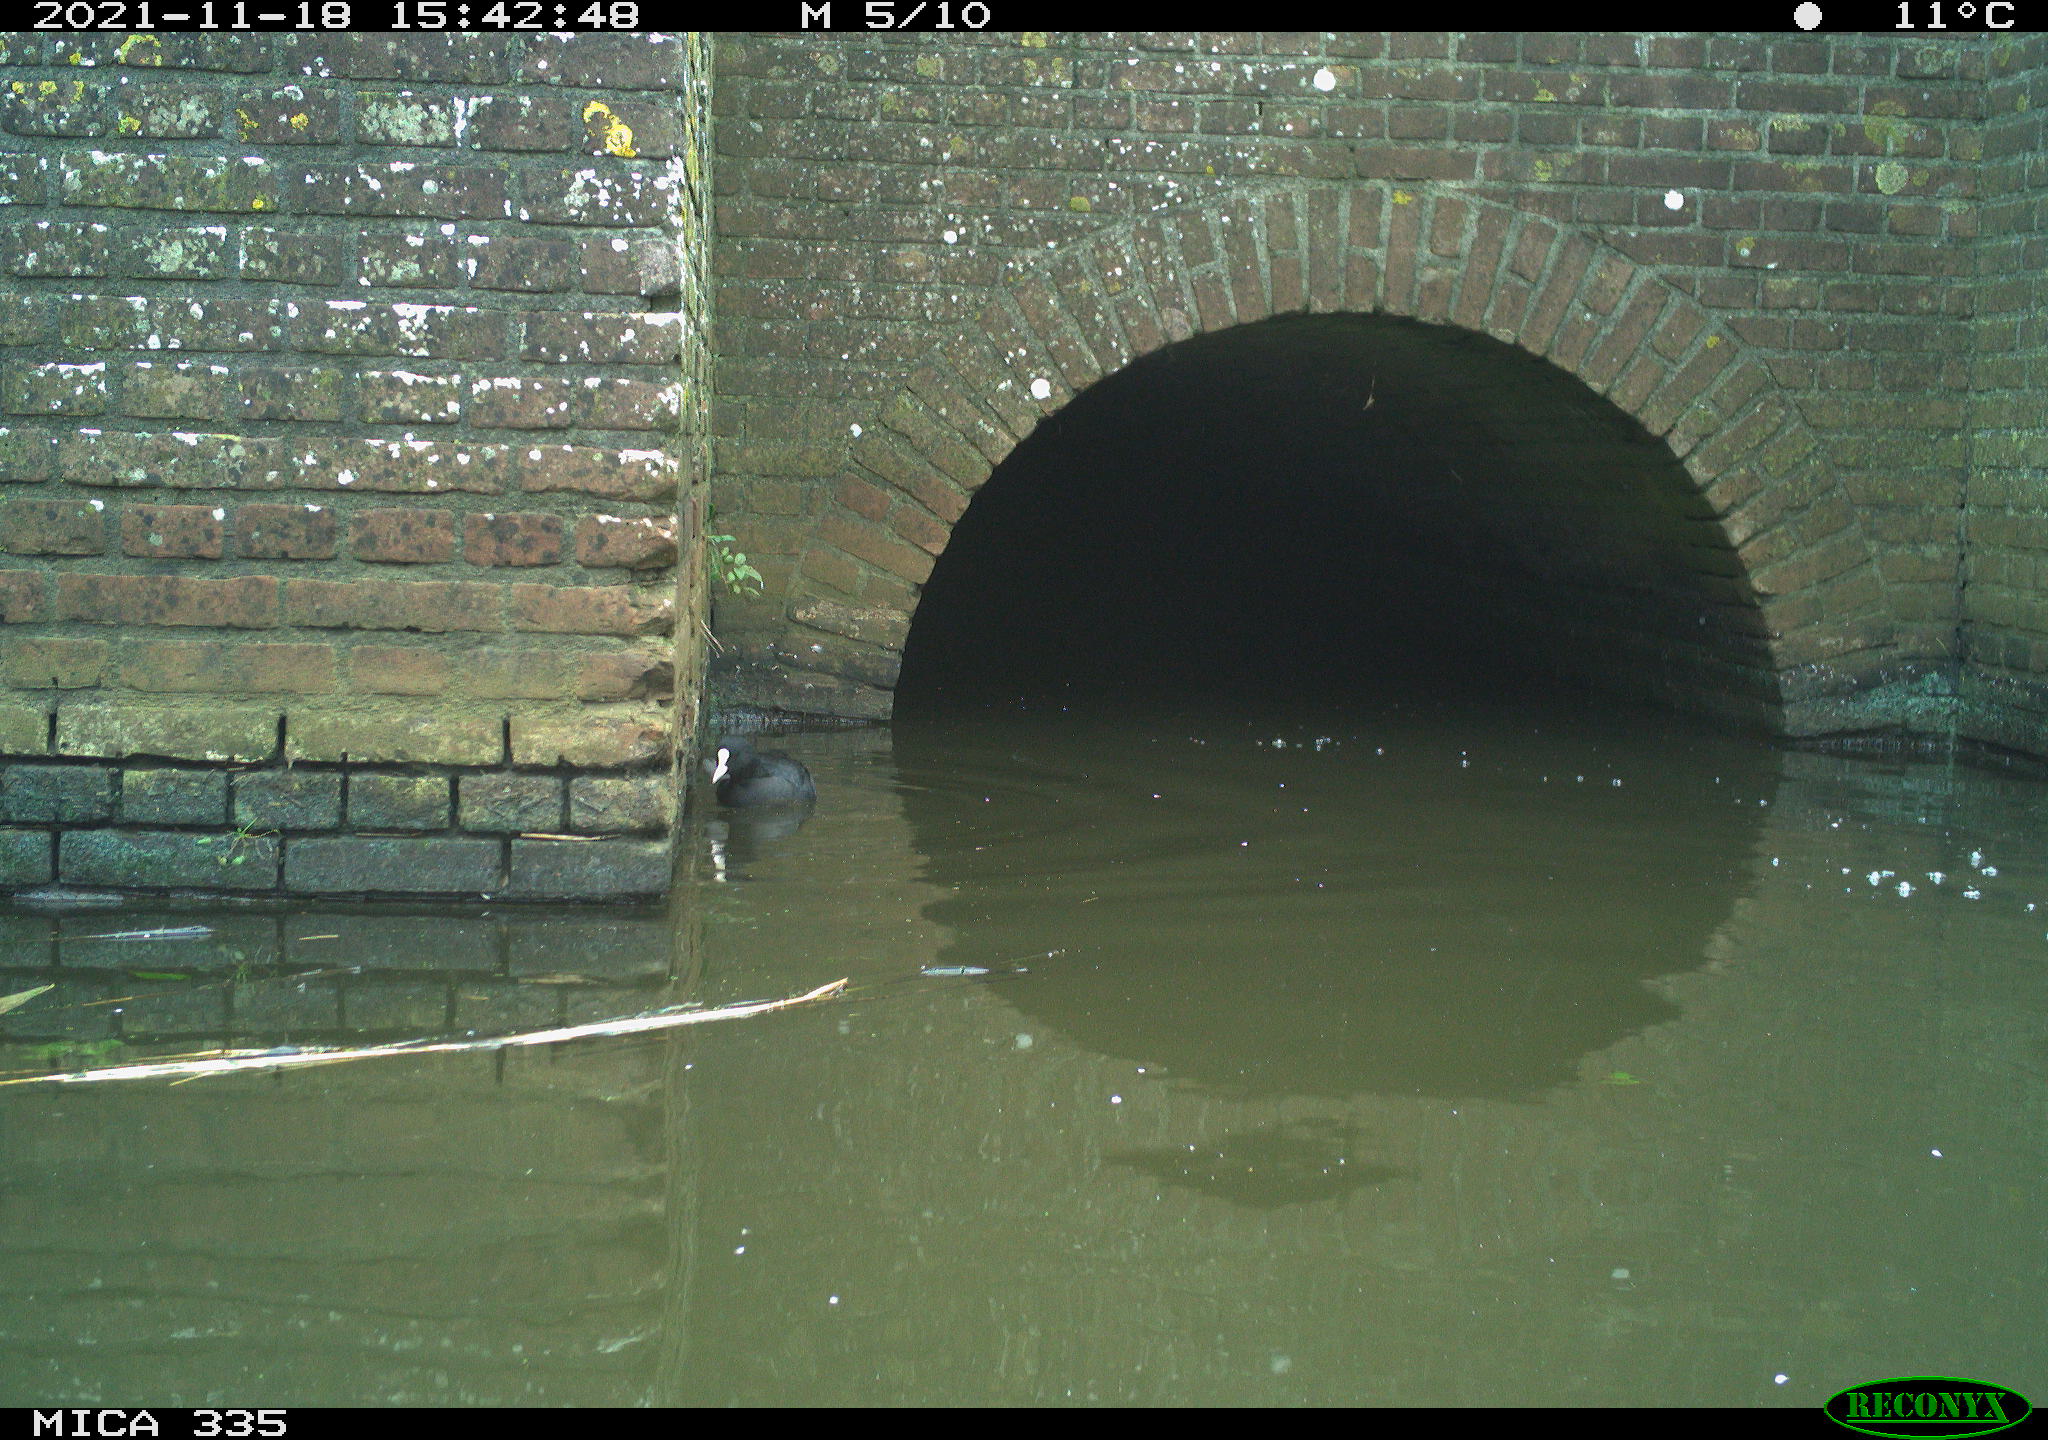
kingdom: Animalia
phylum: Chordata
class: Aves
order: Suliformes
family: Phalacrocoracidae
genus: Phalacrocorax
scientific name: Phalacrocorax carbo
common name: Great cormorant
